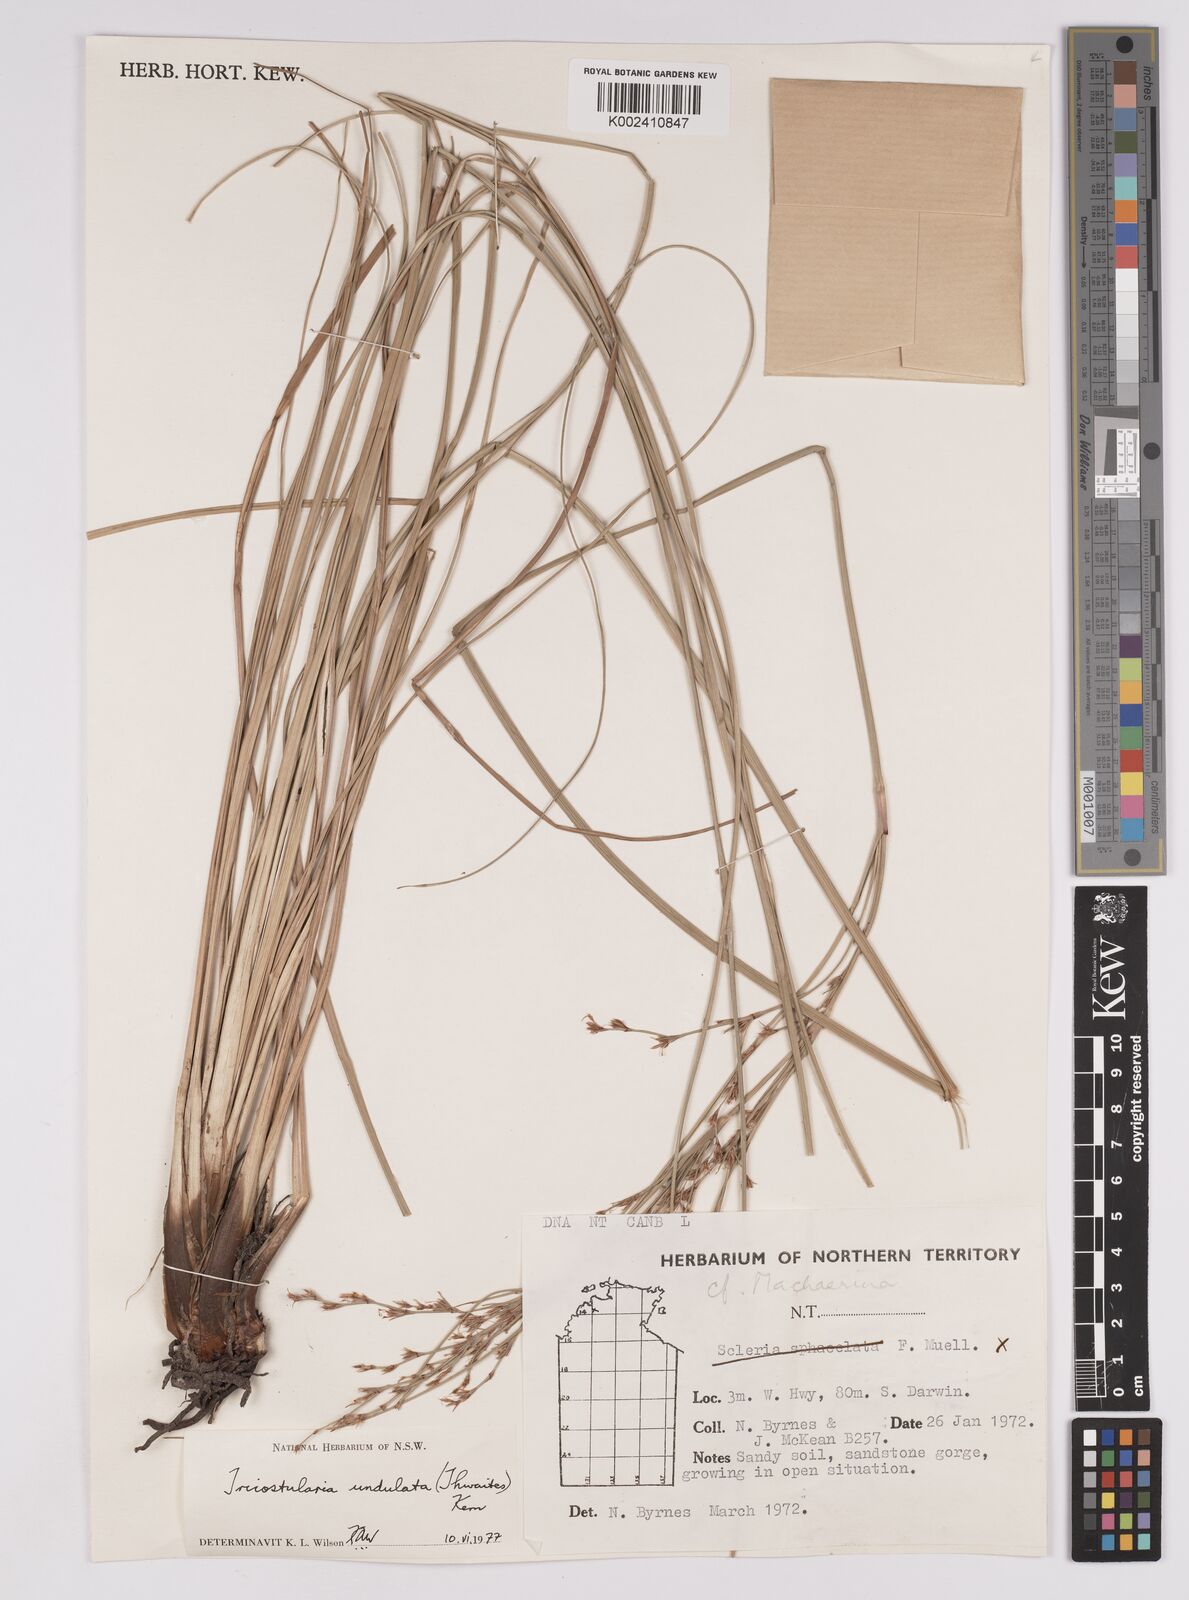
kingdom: Plantae
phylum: Tracheophyta
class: Liliopsida
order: Poales
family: Cyperaceae
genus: Anthelepis
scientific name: Anthelepis undulata
